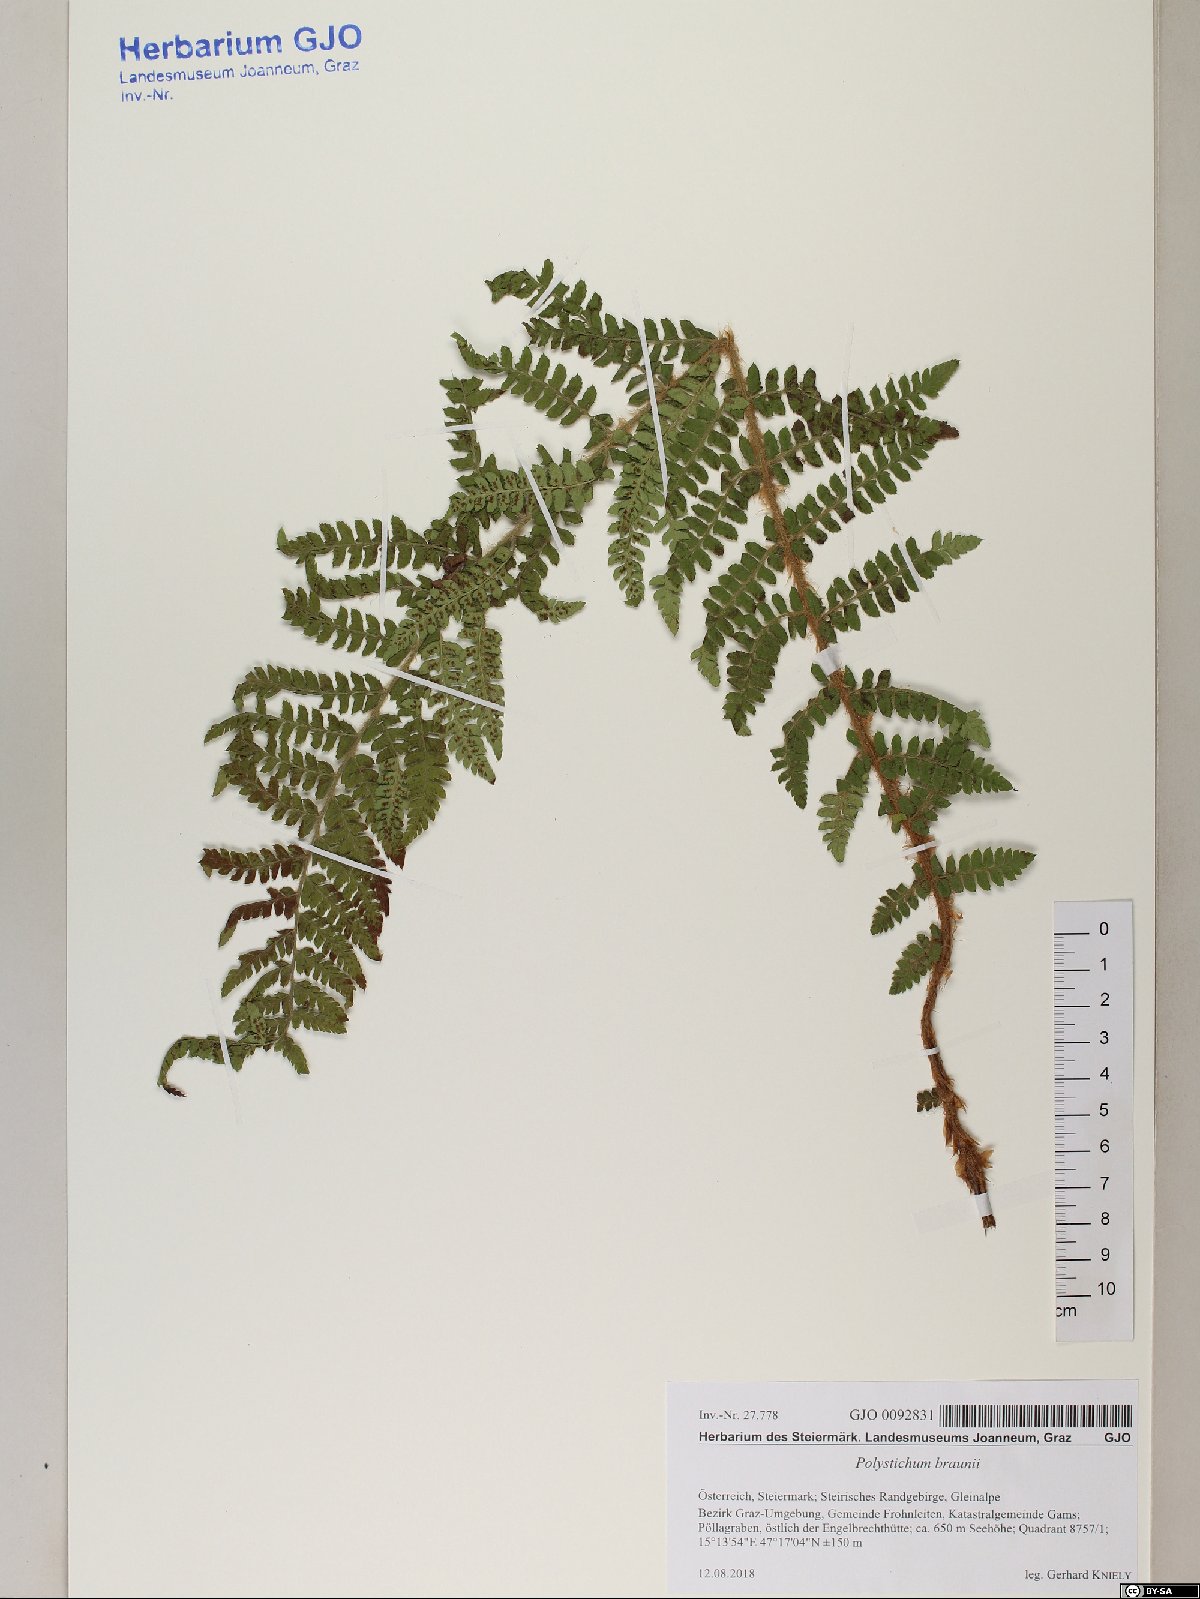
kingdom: Plantae
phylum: Tracheophyta
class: Polypodiopsida
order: Polypodiales
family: Dryopteridaceae
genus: Polystichum
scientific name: Polystichum braunii
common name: Braun's holly fern
